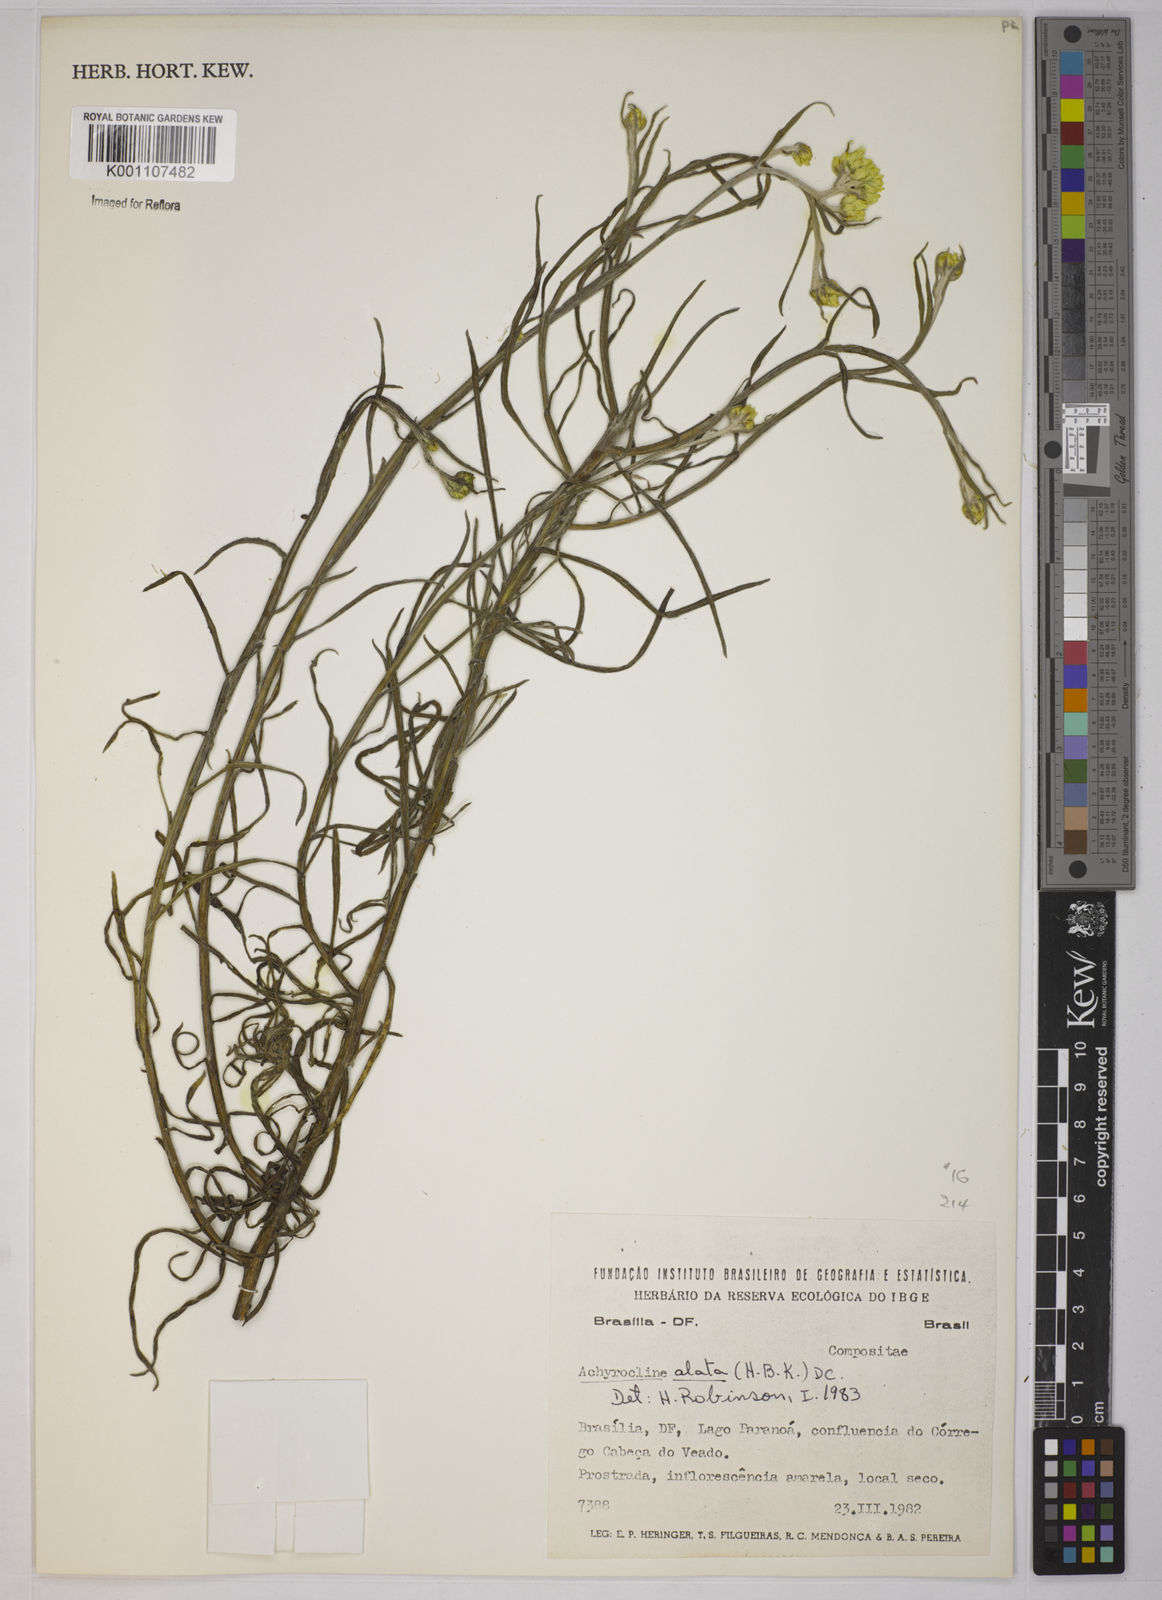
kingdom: Plantae
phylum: Tracheophyta
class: Magnoliopsida
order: Asterales
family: Asteraceae
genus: Achyrocline
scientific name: Achyrocline alata
